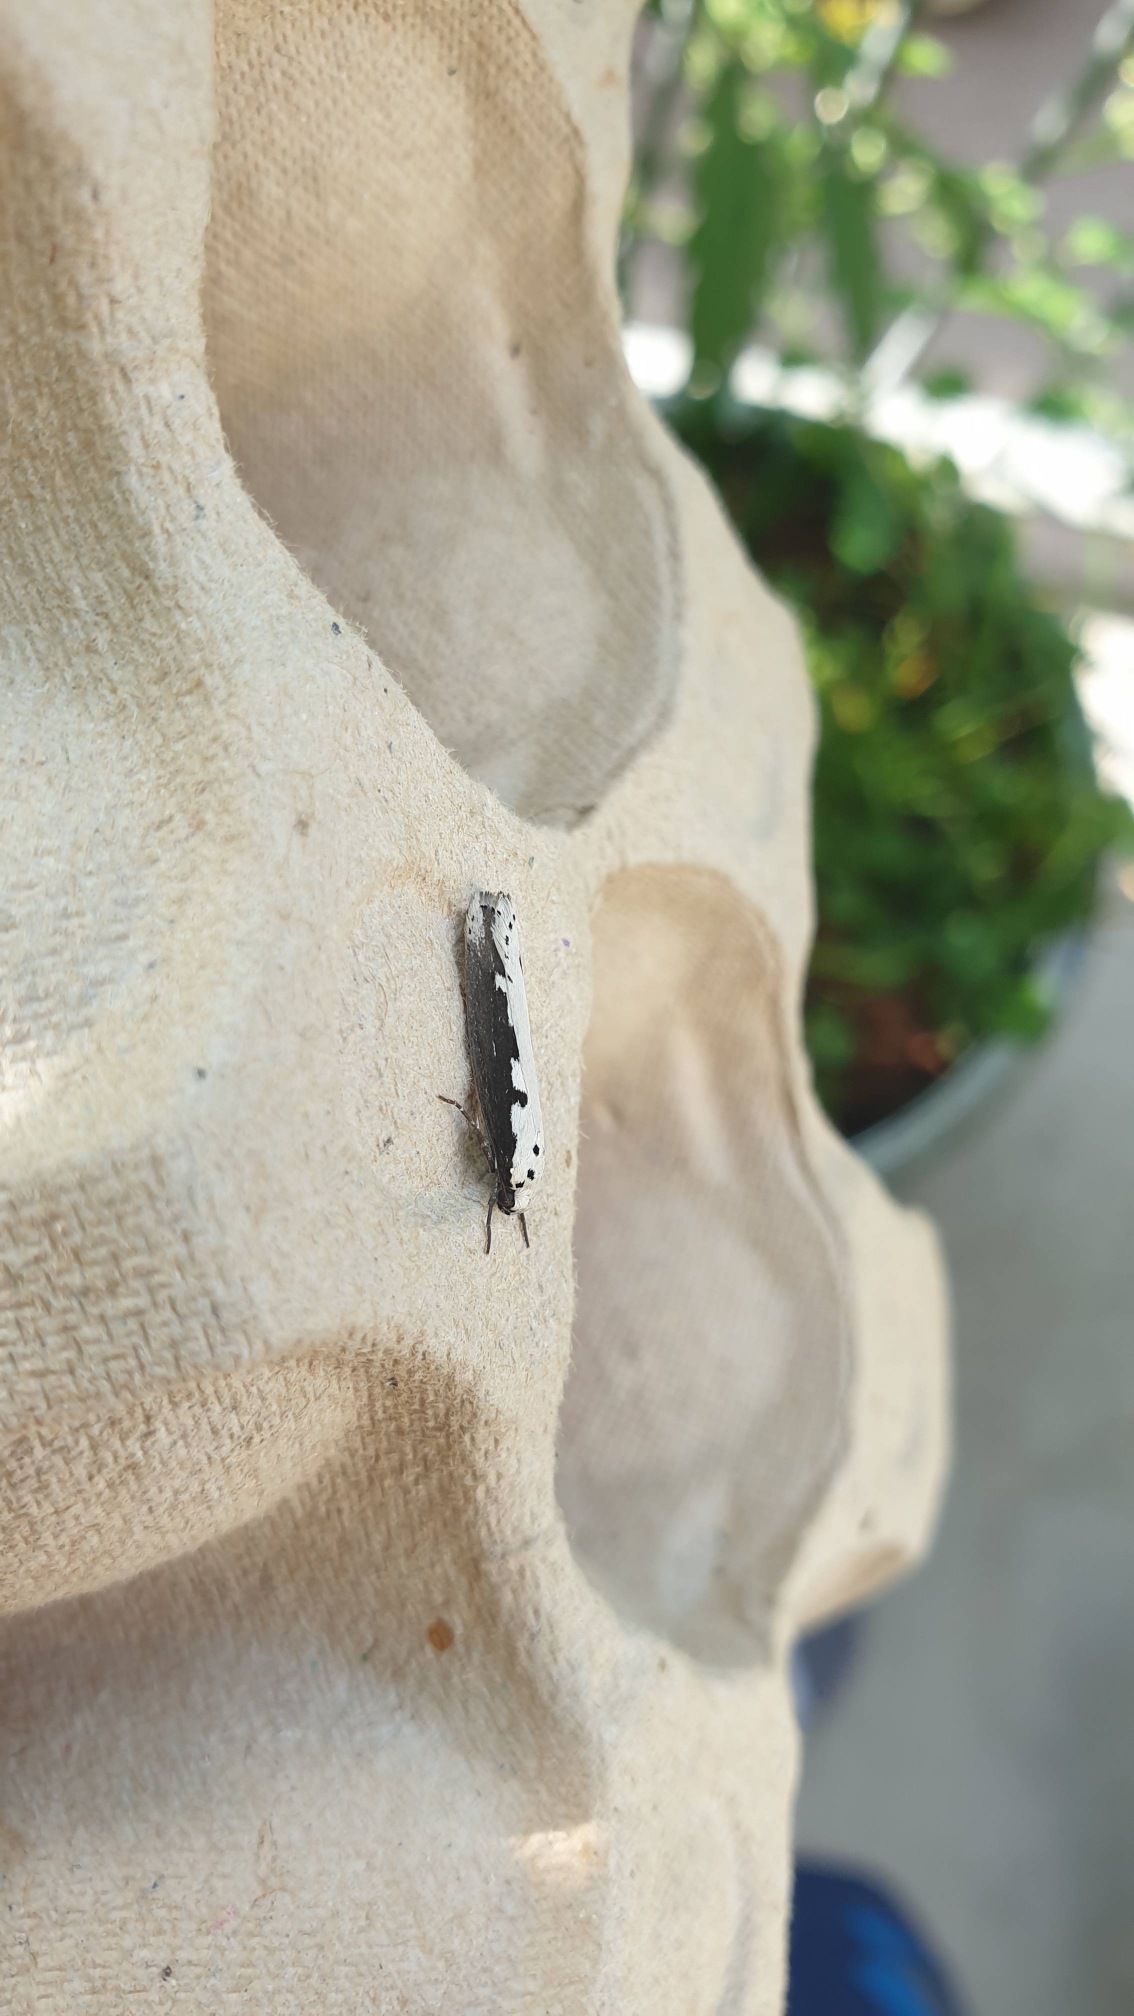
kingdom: Animalia
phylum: Arthropoda
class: Insecta
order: Lepidoptera
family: Ethmiidae
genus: Ethmia
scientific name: Ethmia bipunctella
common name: Slangehovedmøl
